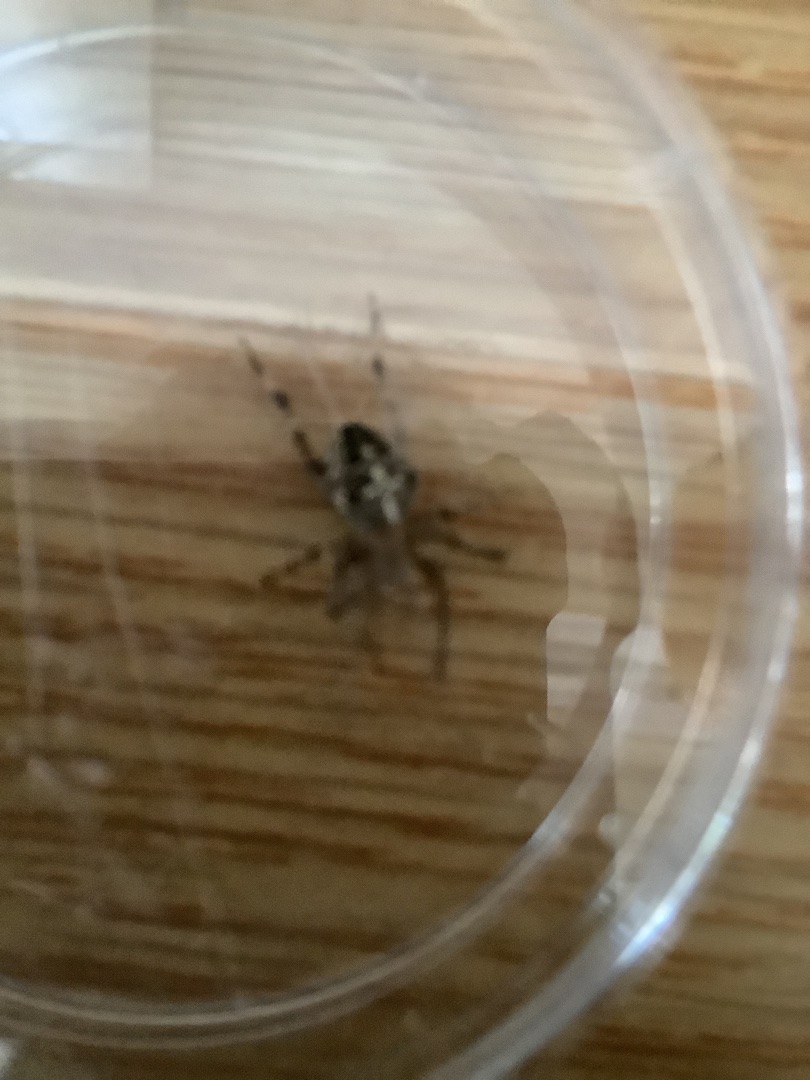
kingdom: Animalia
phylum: Arthropoda
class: Arachnida
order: Araneae
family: Araneidae
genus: Araneus
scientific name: Araneus diadematus
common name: Korsedderkop
